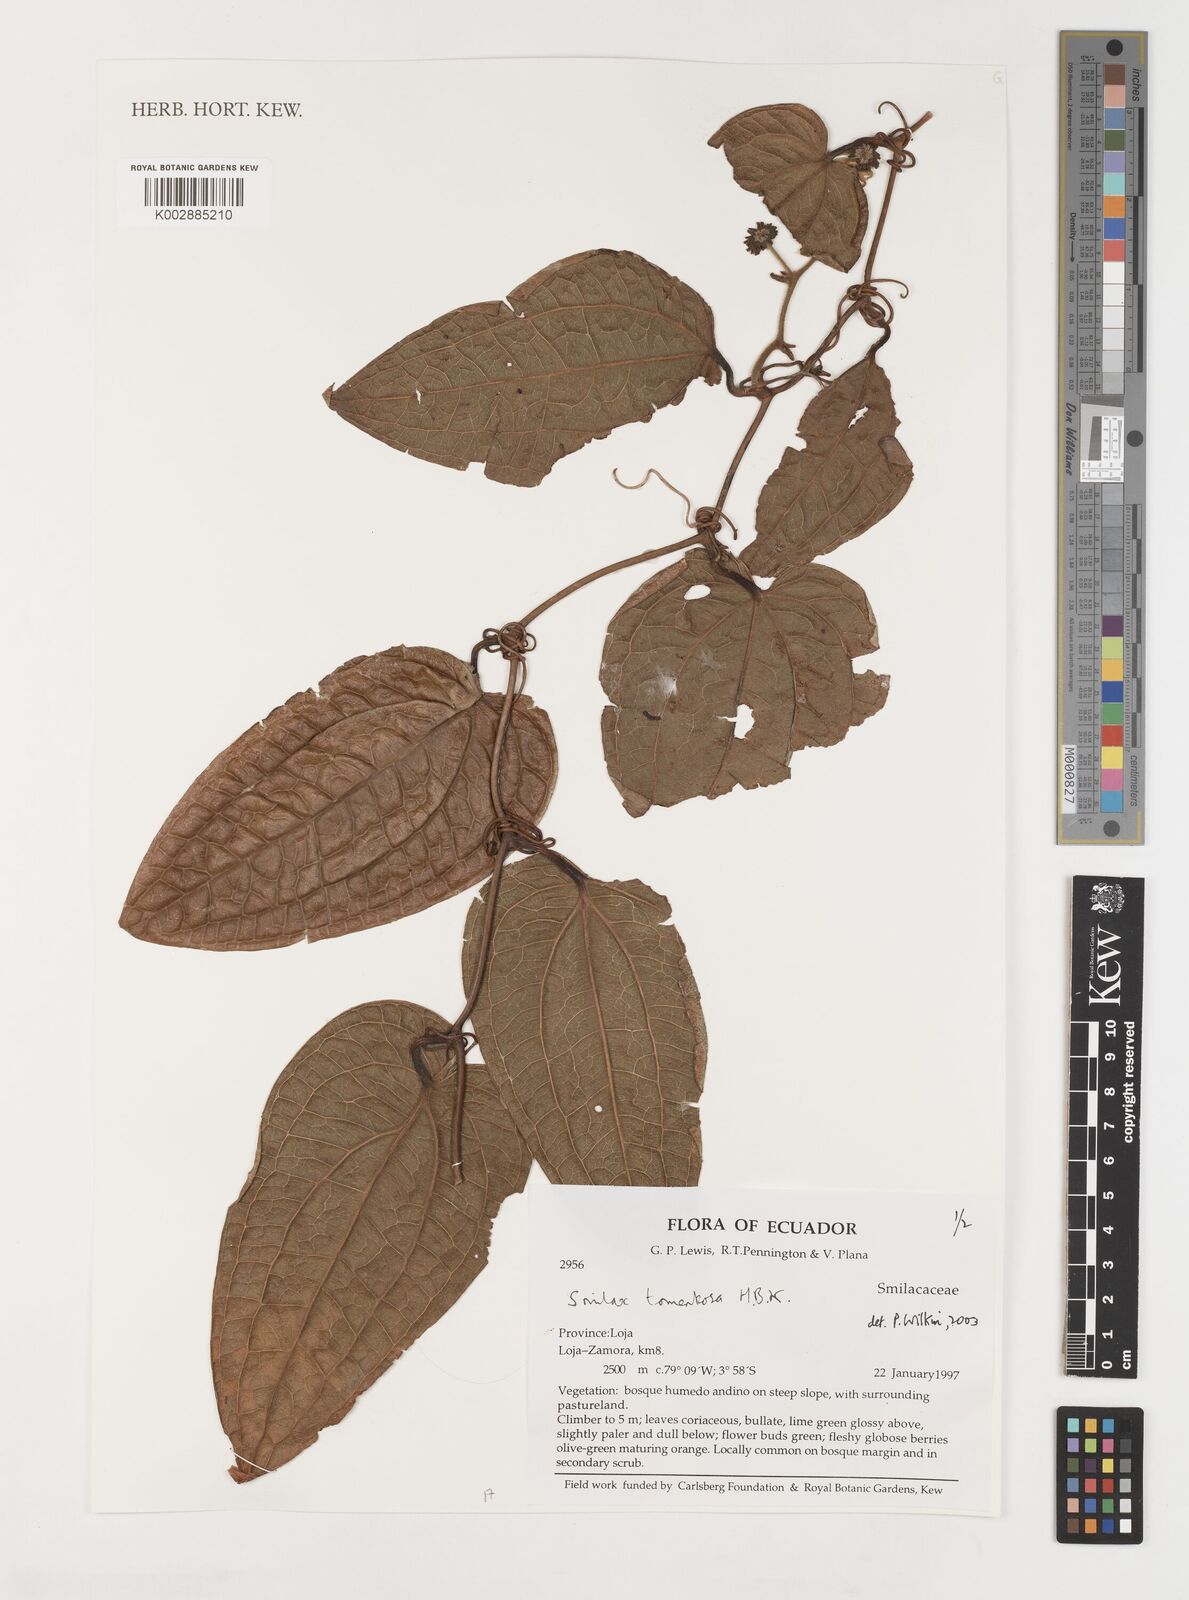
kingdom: Plantae
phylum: Tracheophyta
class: Liliopsida
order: Liliales
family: Smilacaceae
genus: Smilax
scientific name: Smilax tomentosa
